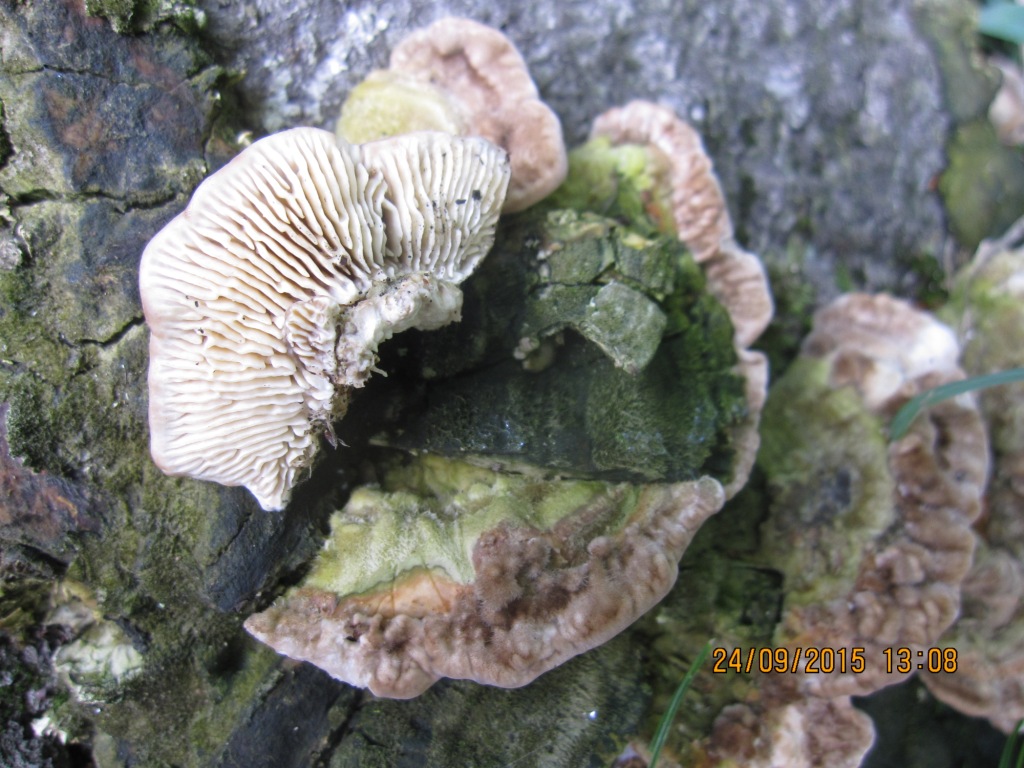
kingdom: Fungi
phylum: Basidiomycota
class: Agaricomycetes
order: Polyporales
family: Polyporaceae
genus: Lenzites
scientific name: Lenzites betulinus
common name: birke-læderporesvamp
